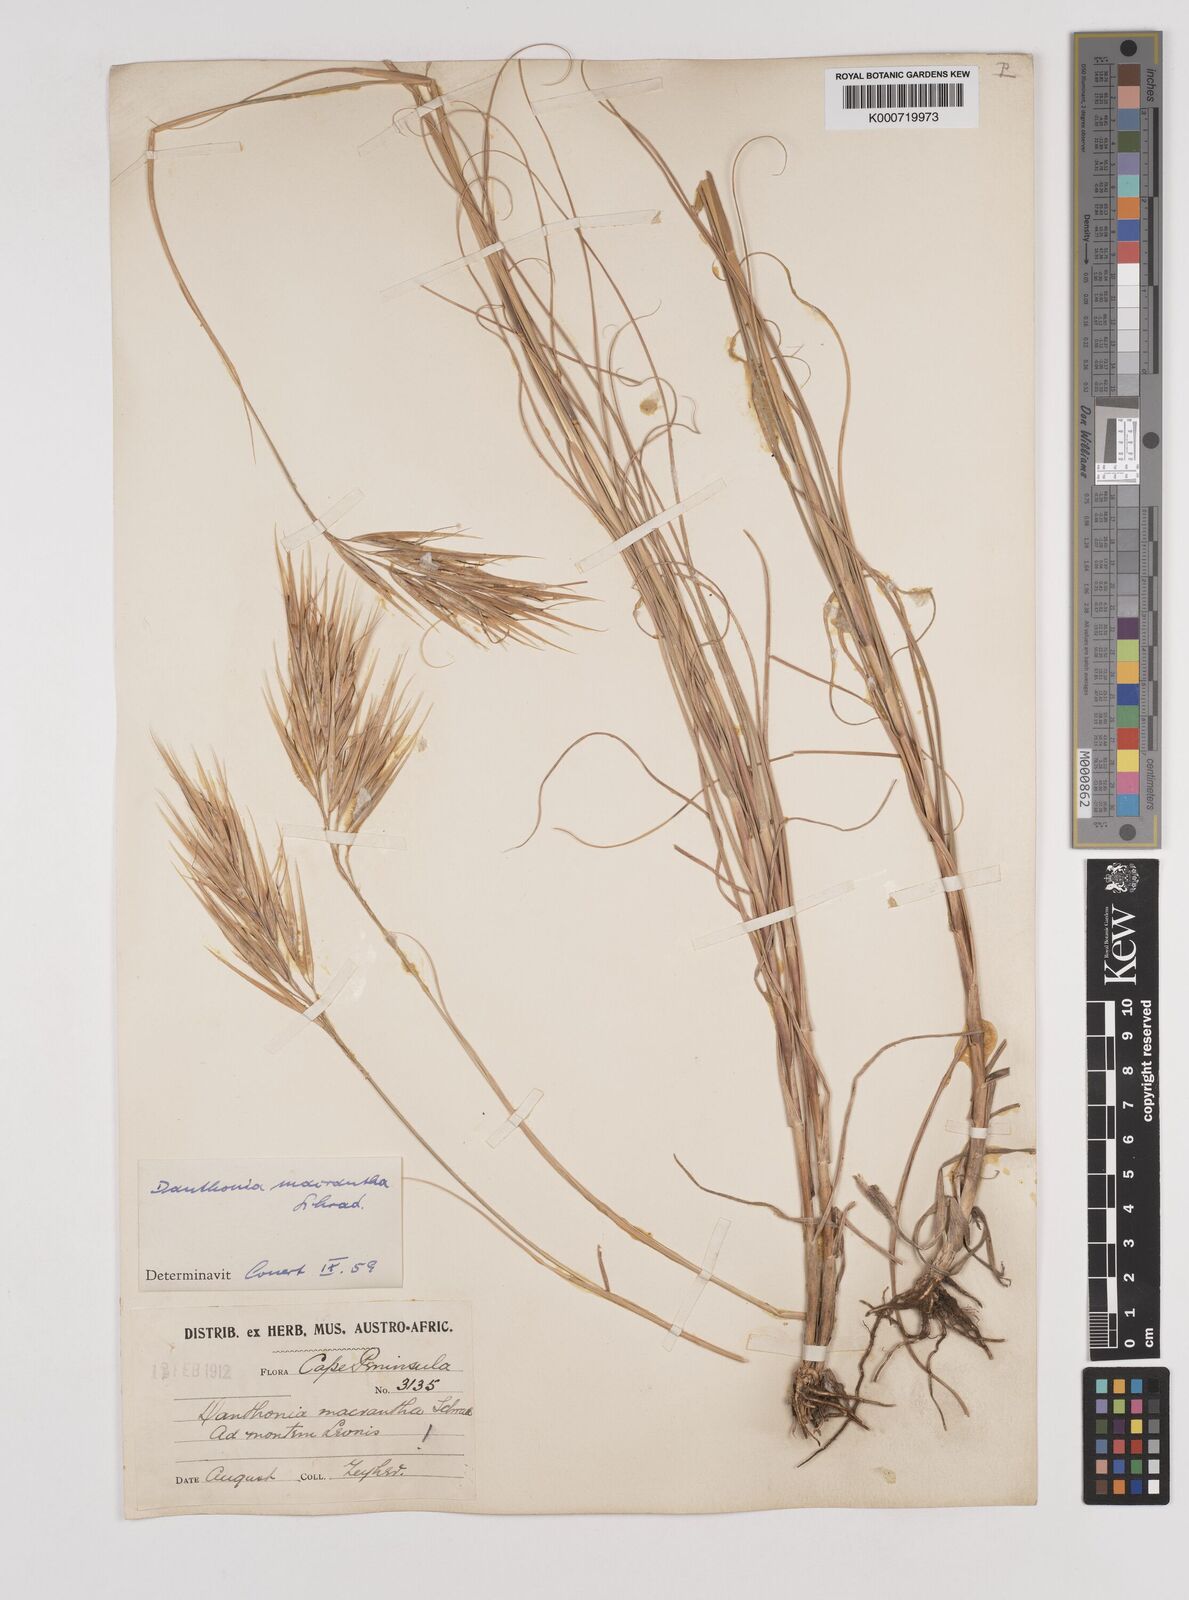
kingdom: Plantae
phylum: Tracheophyta
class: Liliopsida
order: Poales
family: Poaceae
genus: Pseudopentameris
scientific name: Pseudopentameris macrantha
